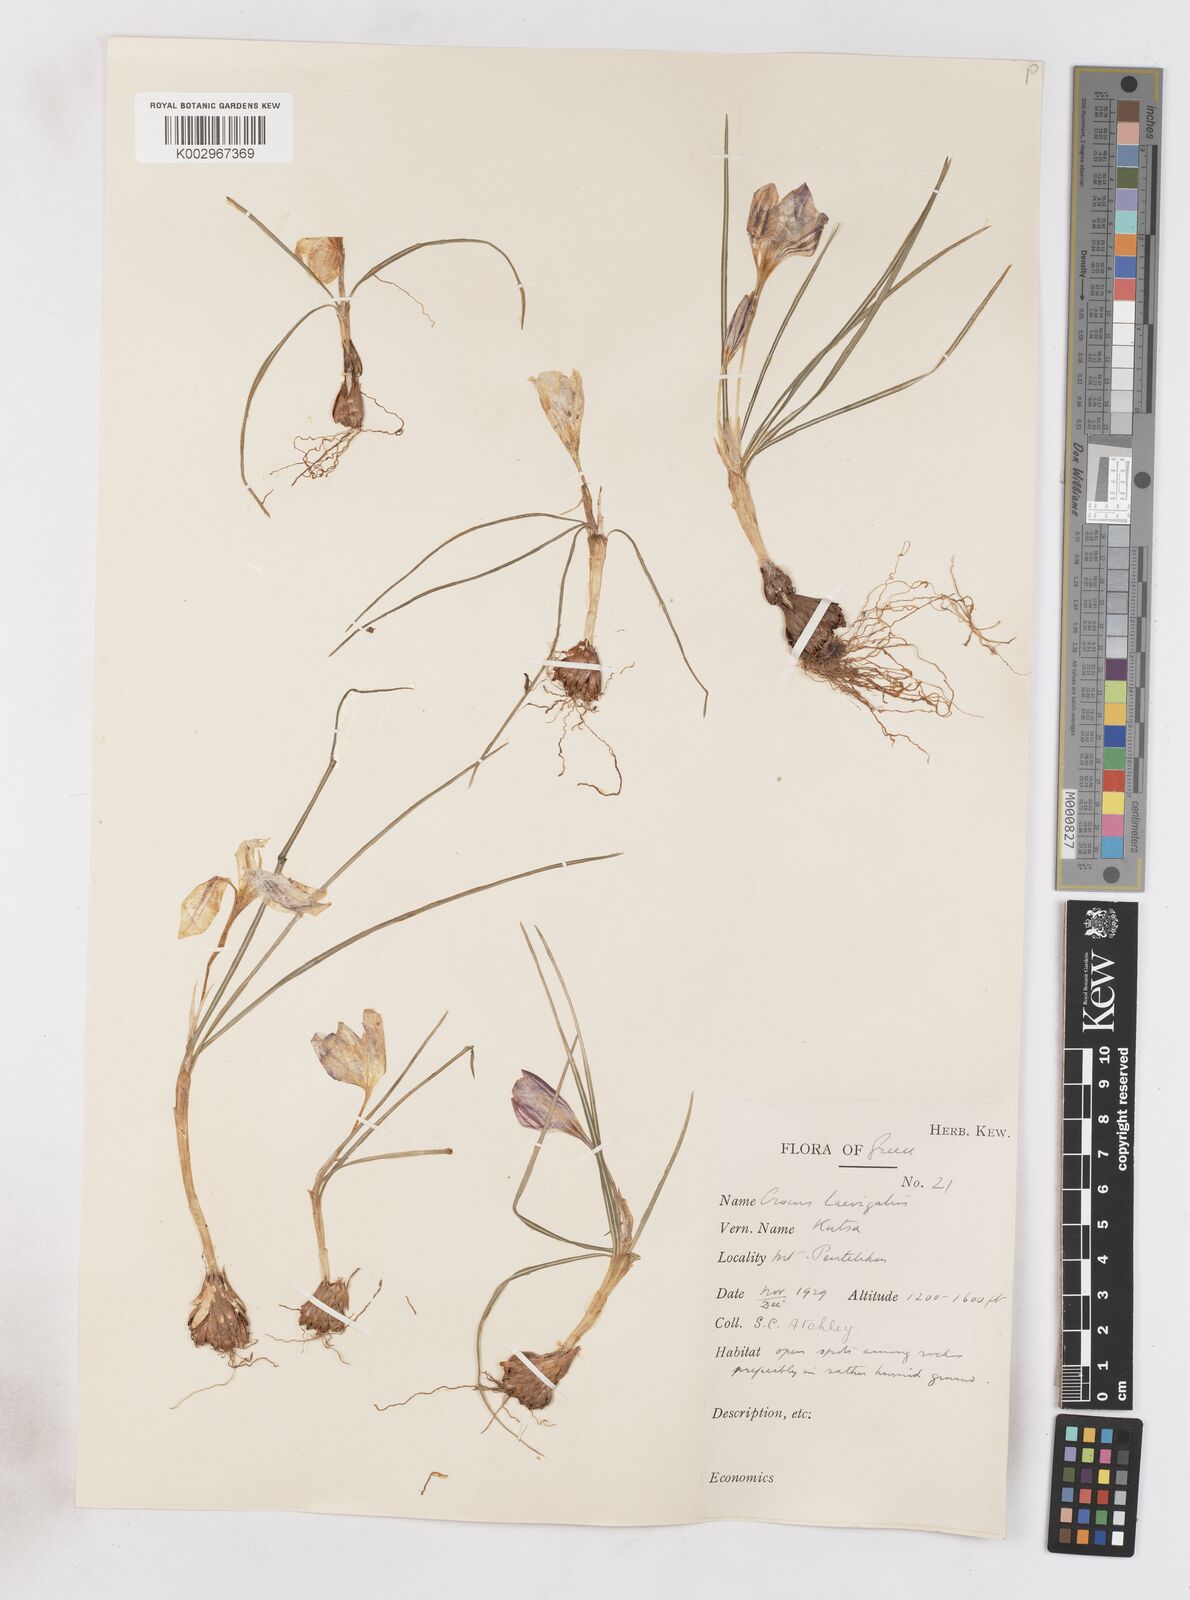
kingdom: Plantae
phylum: Tracheophyta
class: Liliopsida
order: Asparagales
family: Iridaceae
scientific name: Iridaceae
